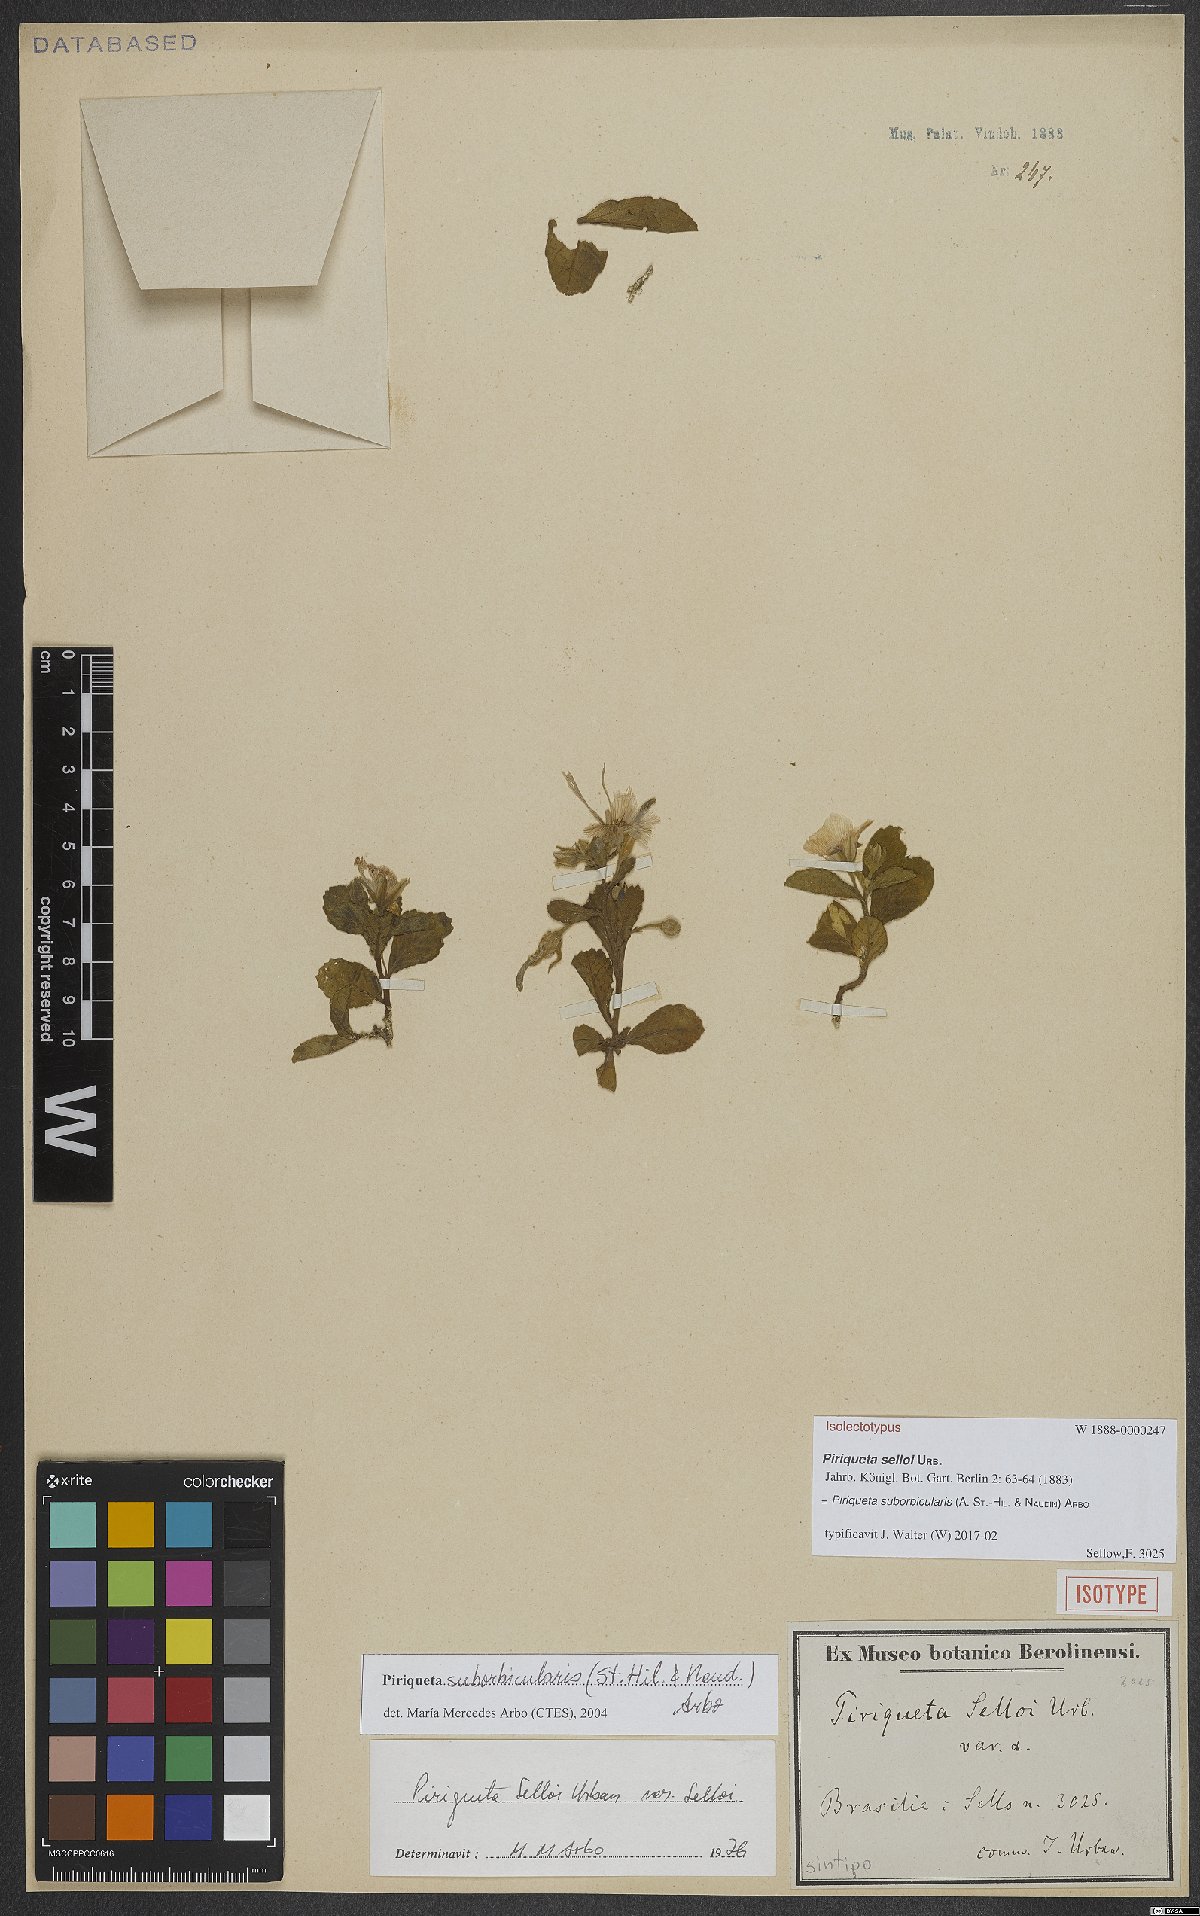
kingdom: Plantae
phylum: Tracheophyta
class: Magnoliopsida
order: Malpighiales
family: Turneraceae
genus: Piriqueta
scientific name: Piriqueta suborbicularis
